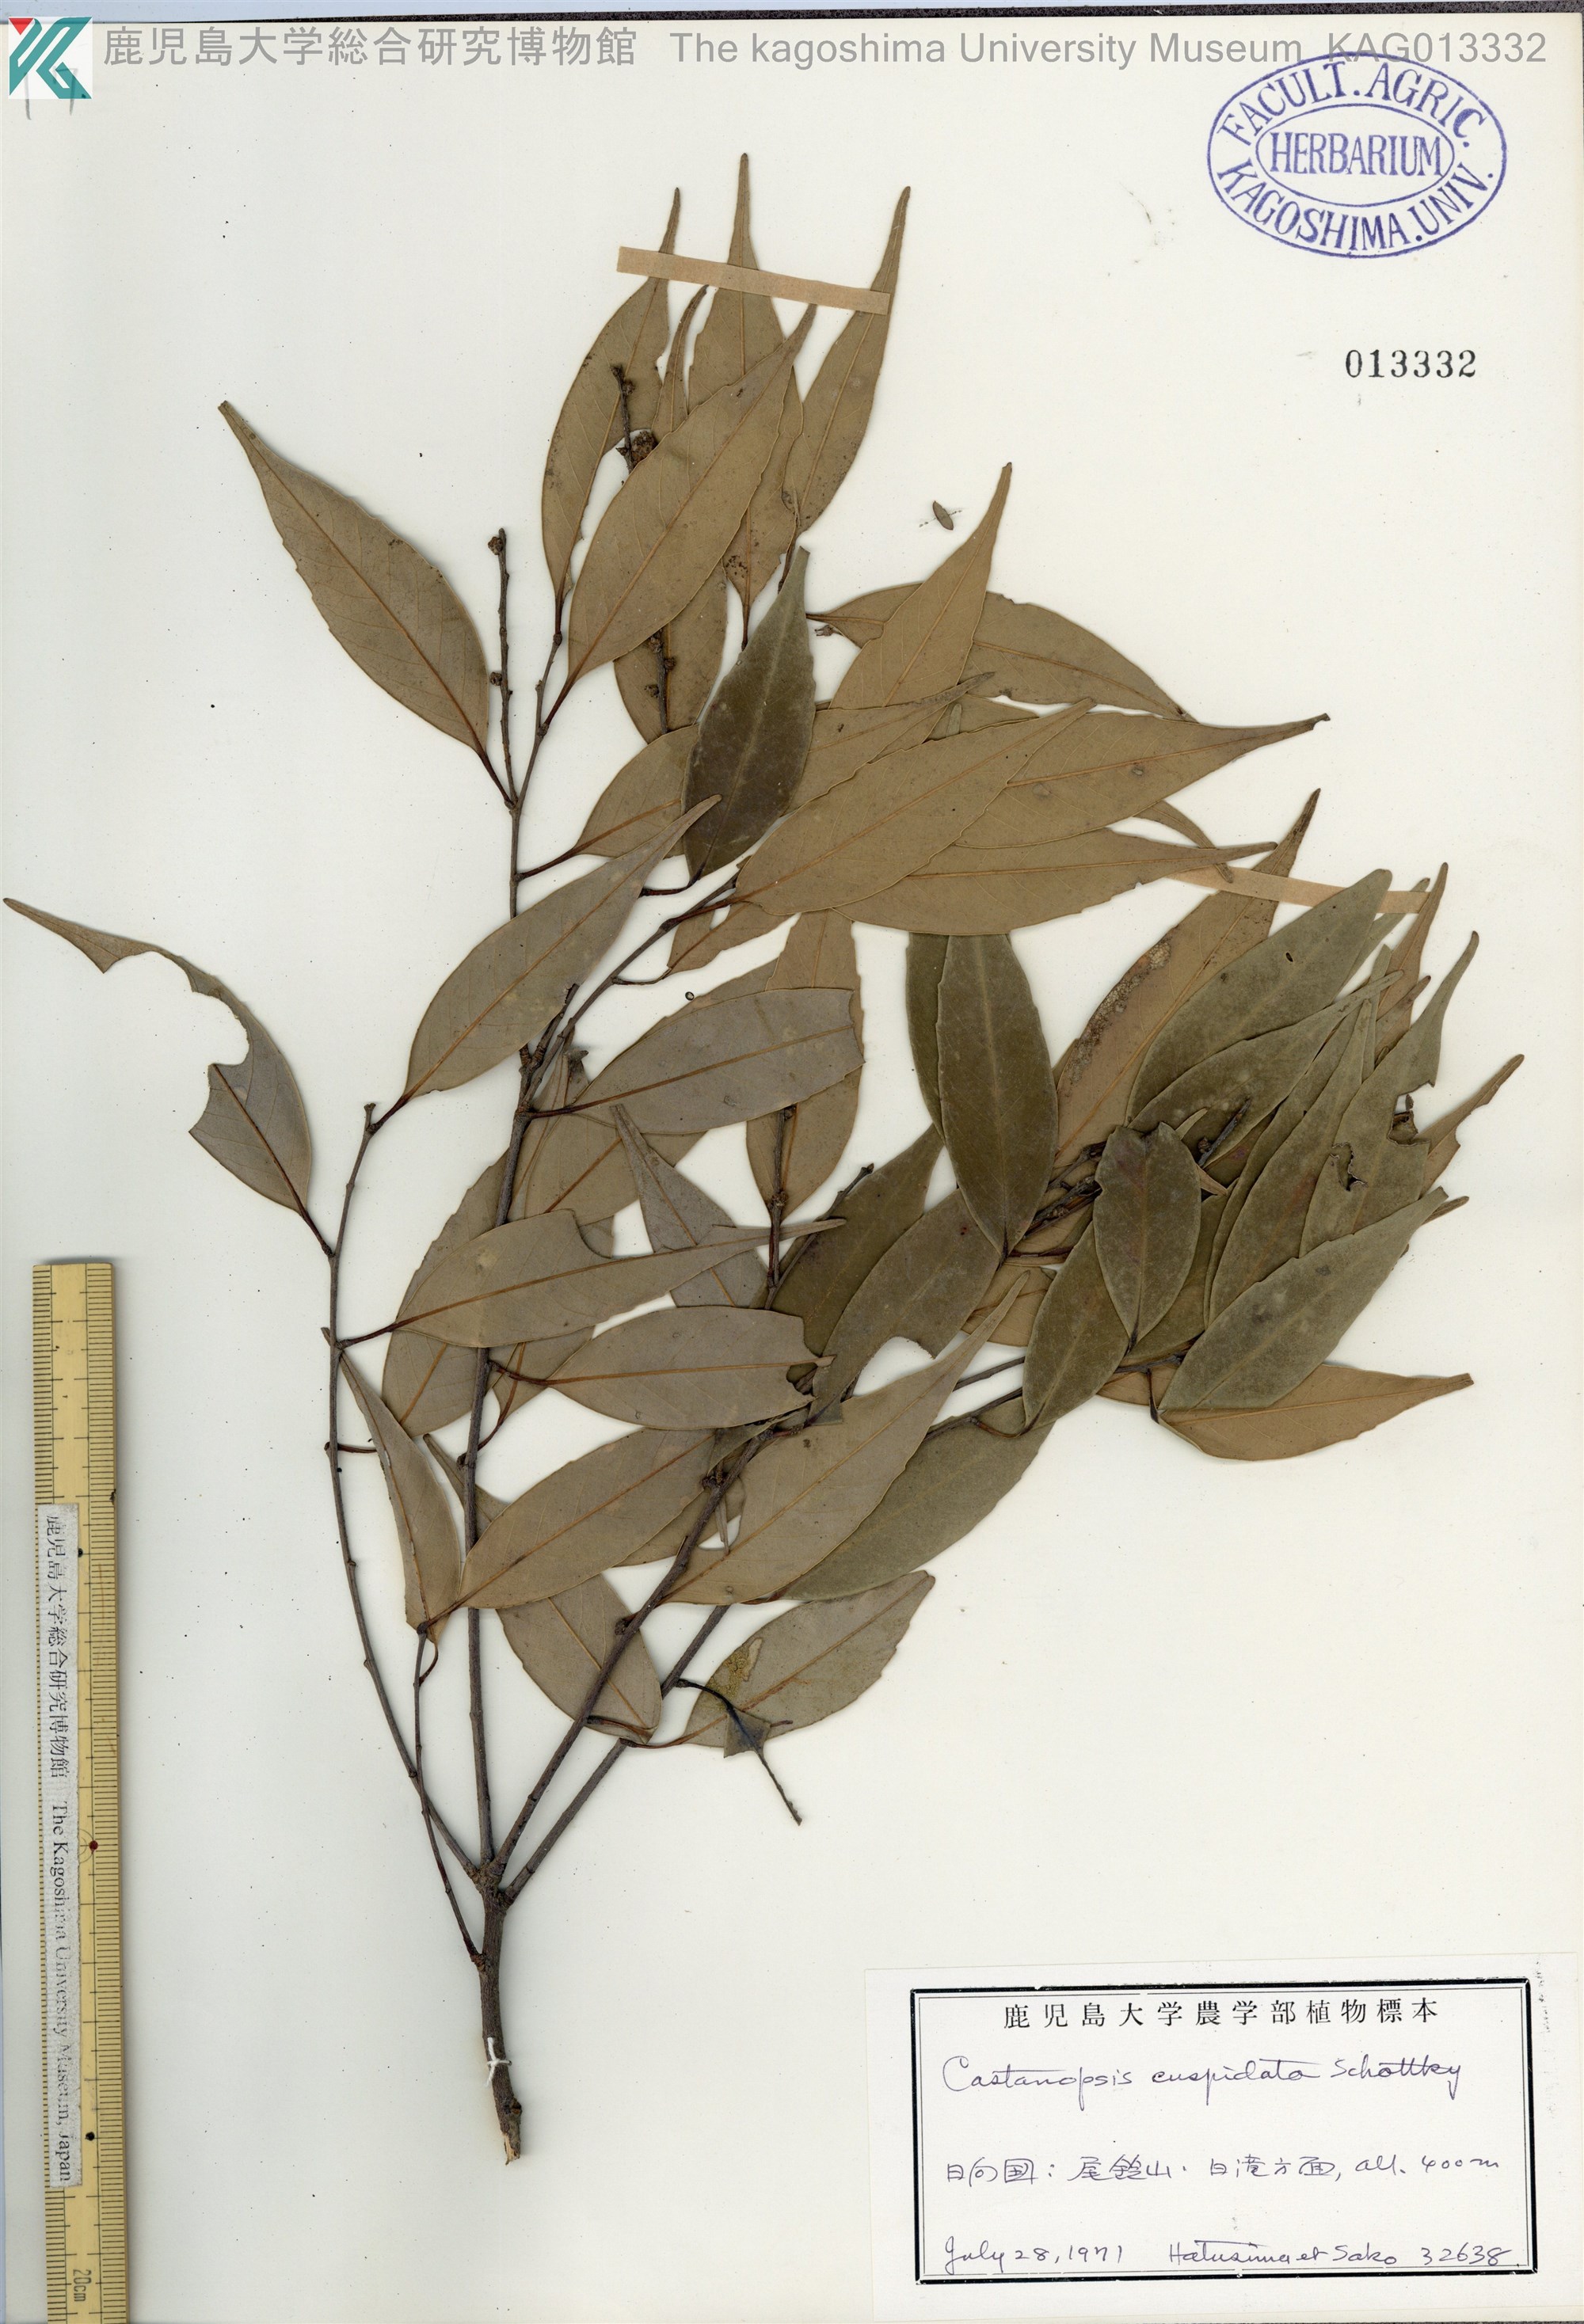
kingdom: Plantae
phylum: Tracheophyta
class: Magnoliopsida
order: Fagales
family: Fagaceae
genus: Castanopsis
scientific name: Castanopsis cuspidata
